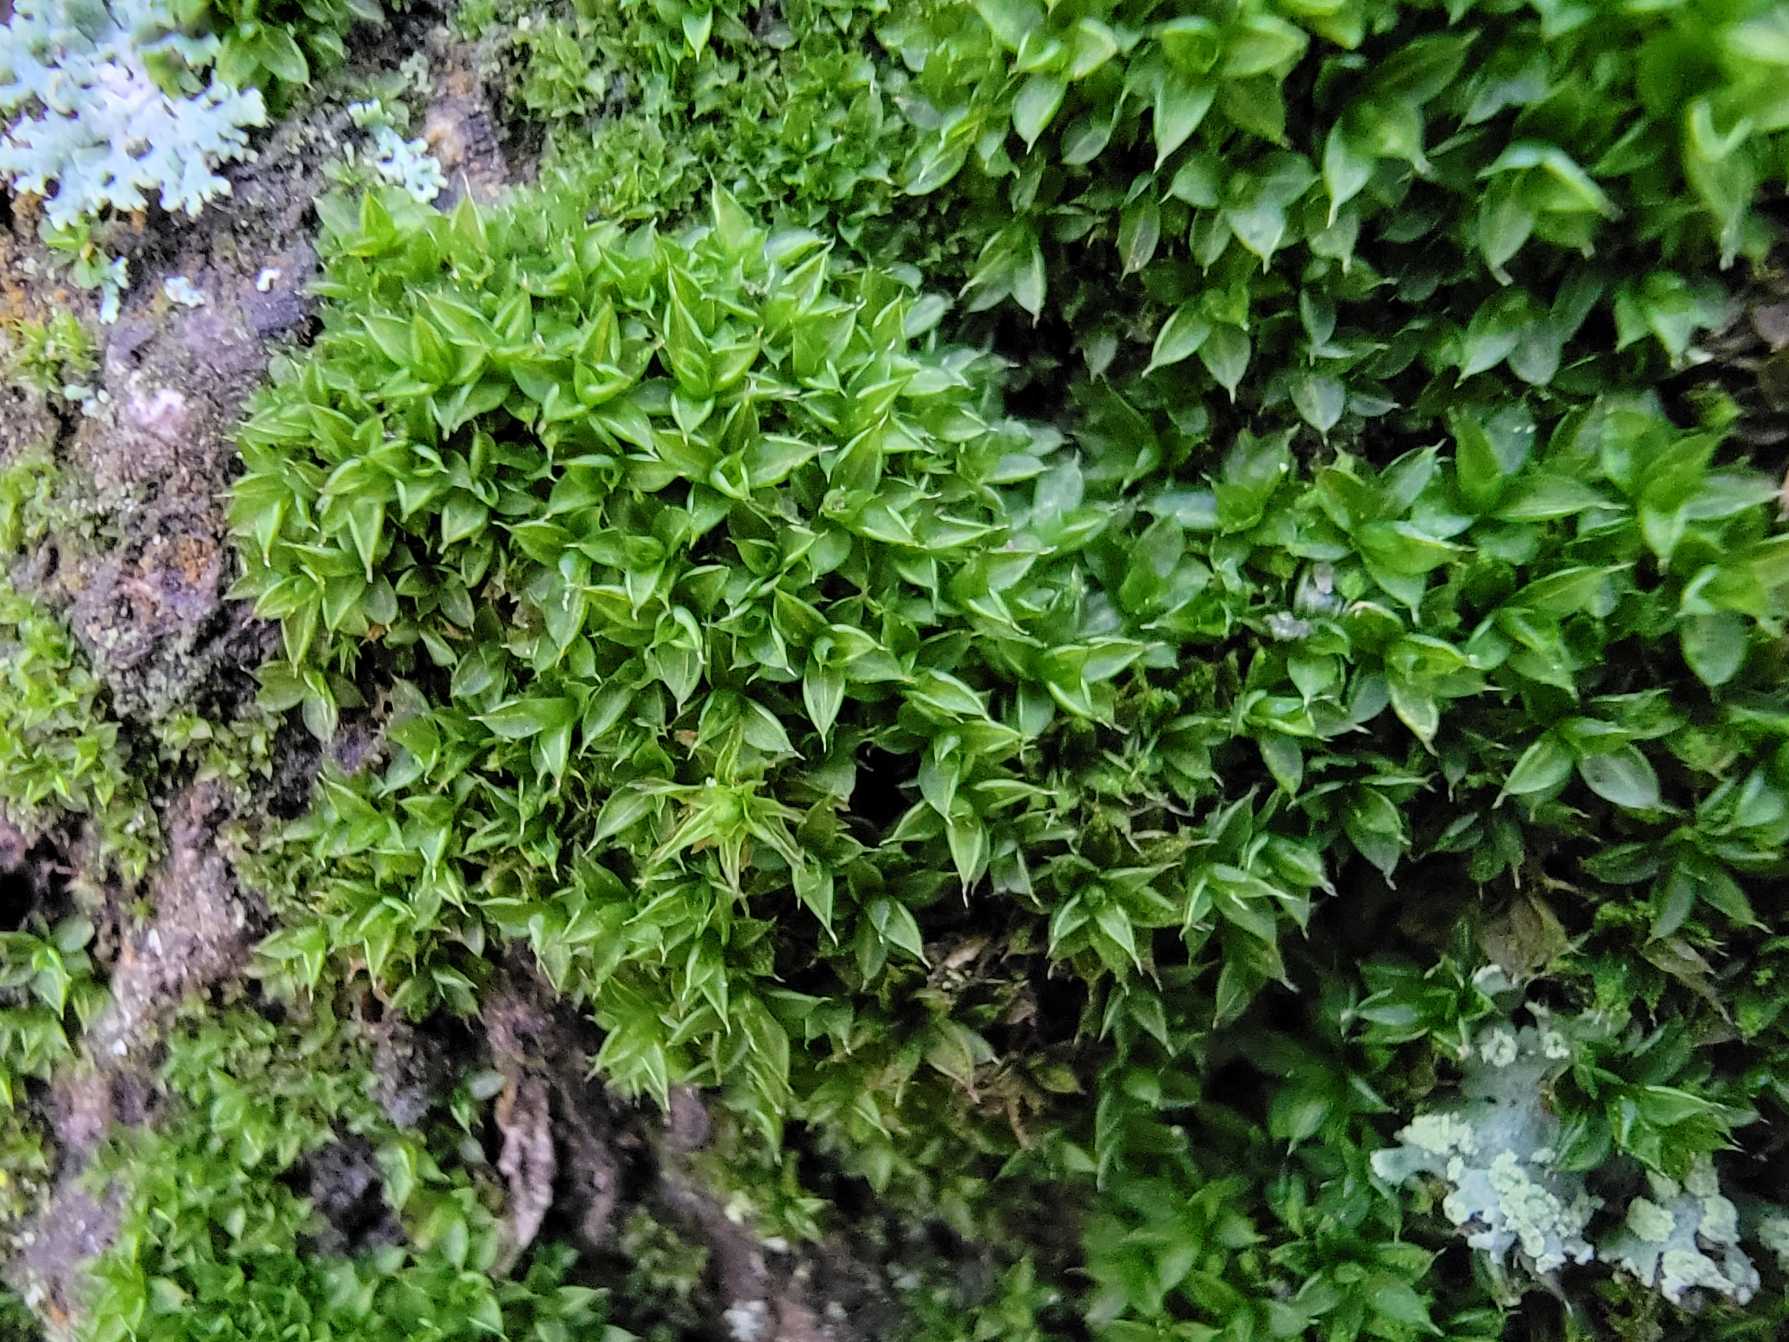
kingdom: Plantae
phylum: Bryophyta
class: Bryopsida
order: Pottiales
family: Pottiaceae
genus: Syntrichia
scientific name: Syntrichia papillosa
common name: Bark-hårstjerne
